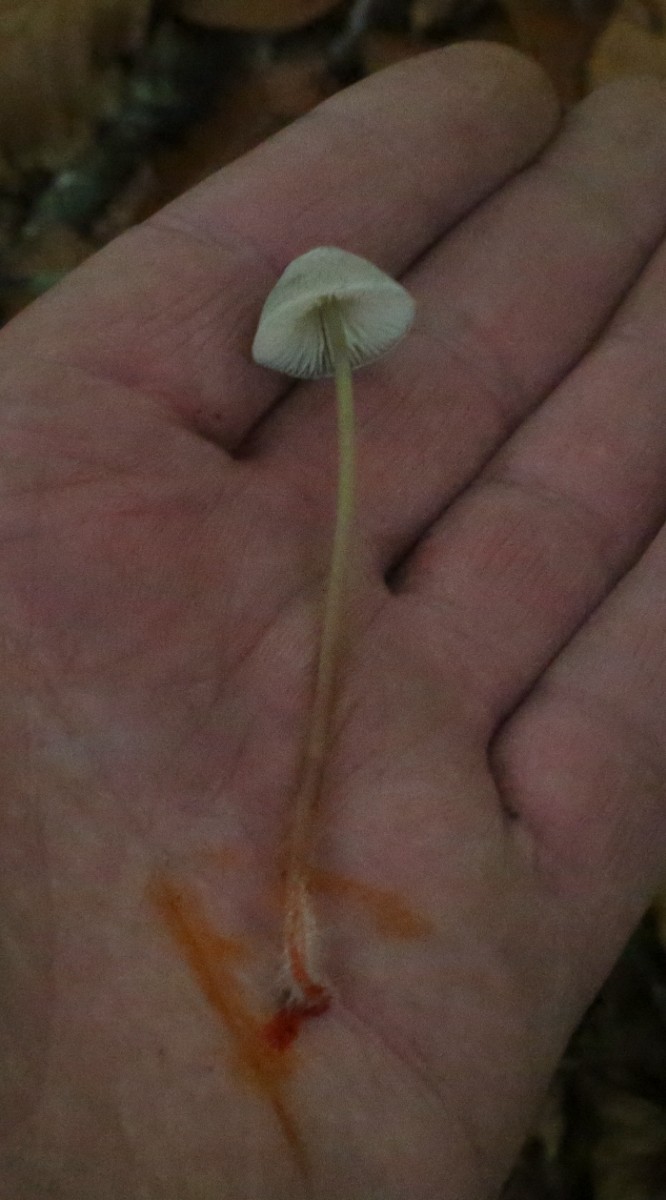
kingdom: Fungi
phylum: Basidiomycota
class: Agaricomycetes
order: Agaricales
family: Mycenaceae
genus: Mycena
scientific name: Mycena crocata
